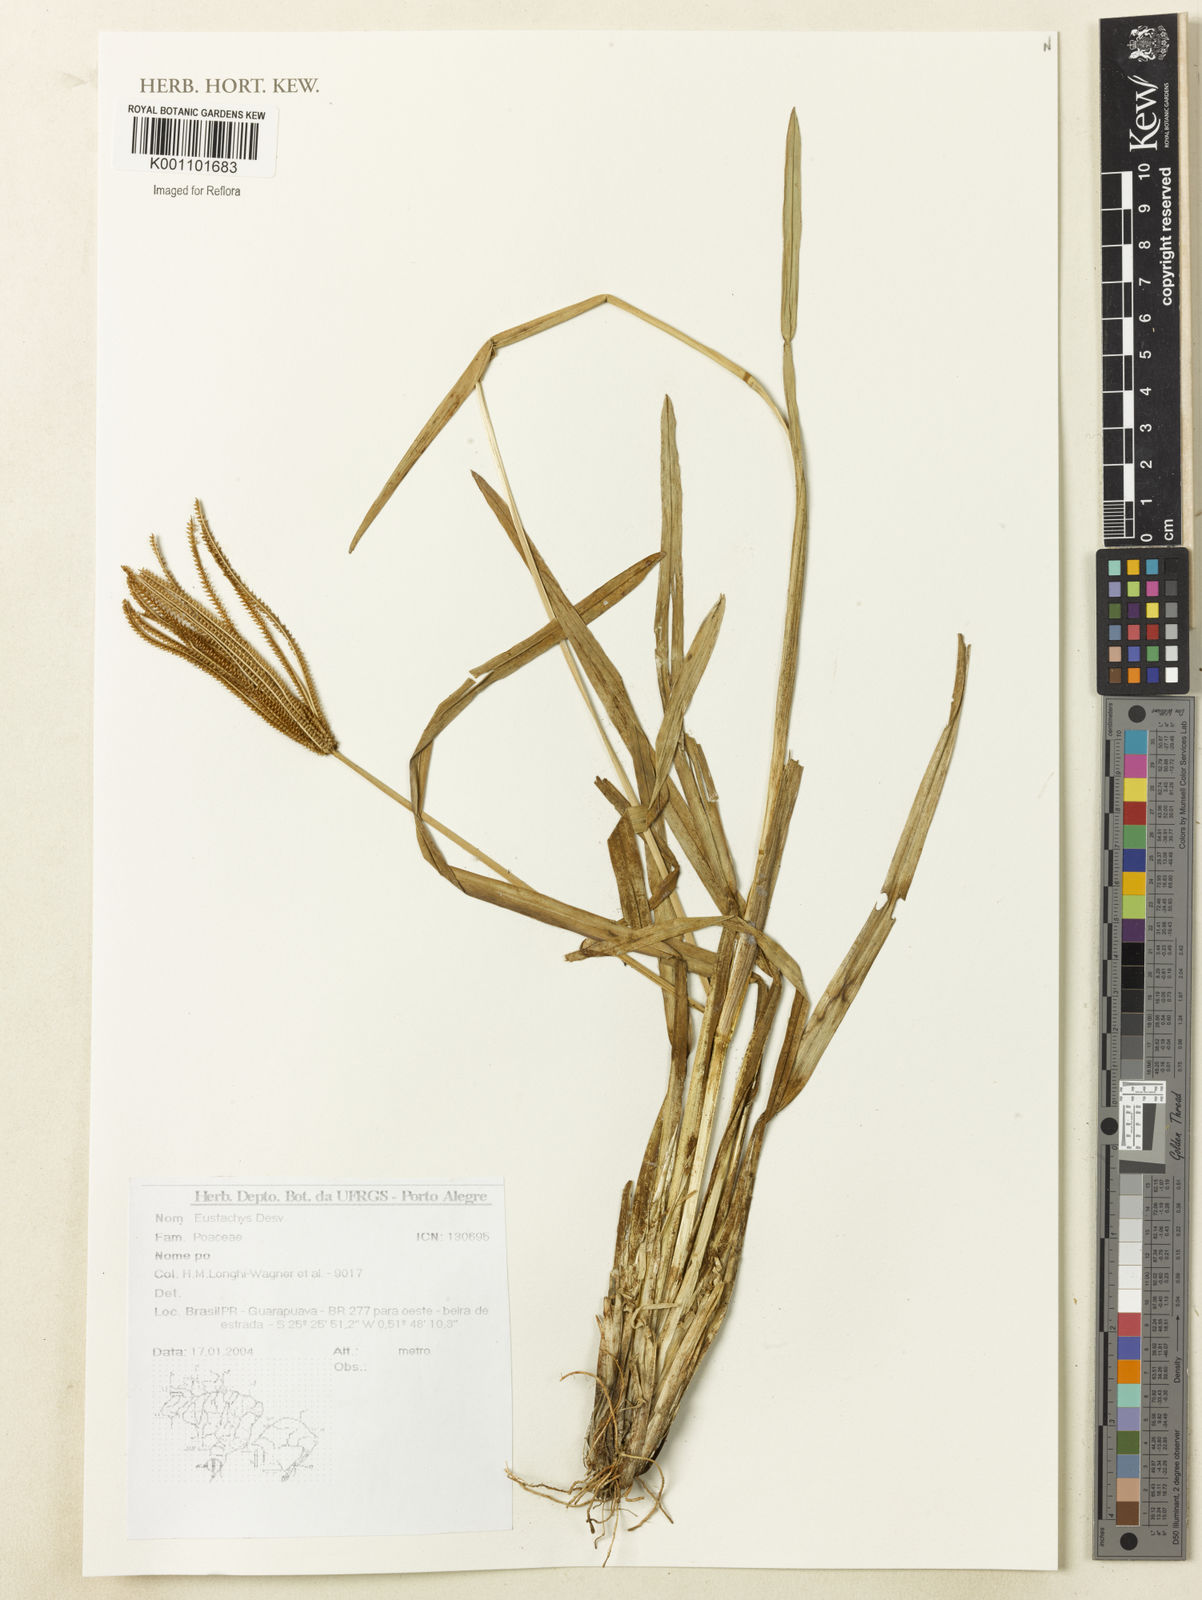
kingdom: Plantae
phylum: Tracheophyta
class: Liliopsida
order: Poales
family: Poaceae
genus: Eustachys
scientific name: Eustachys
